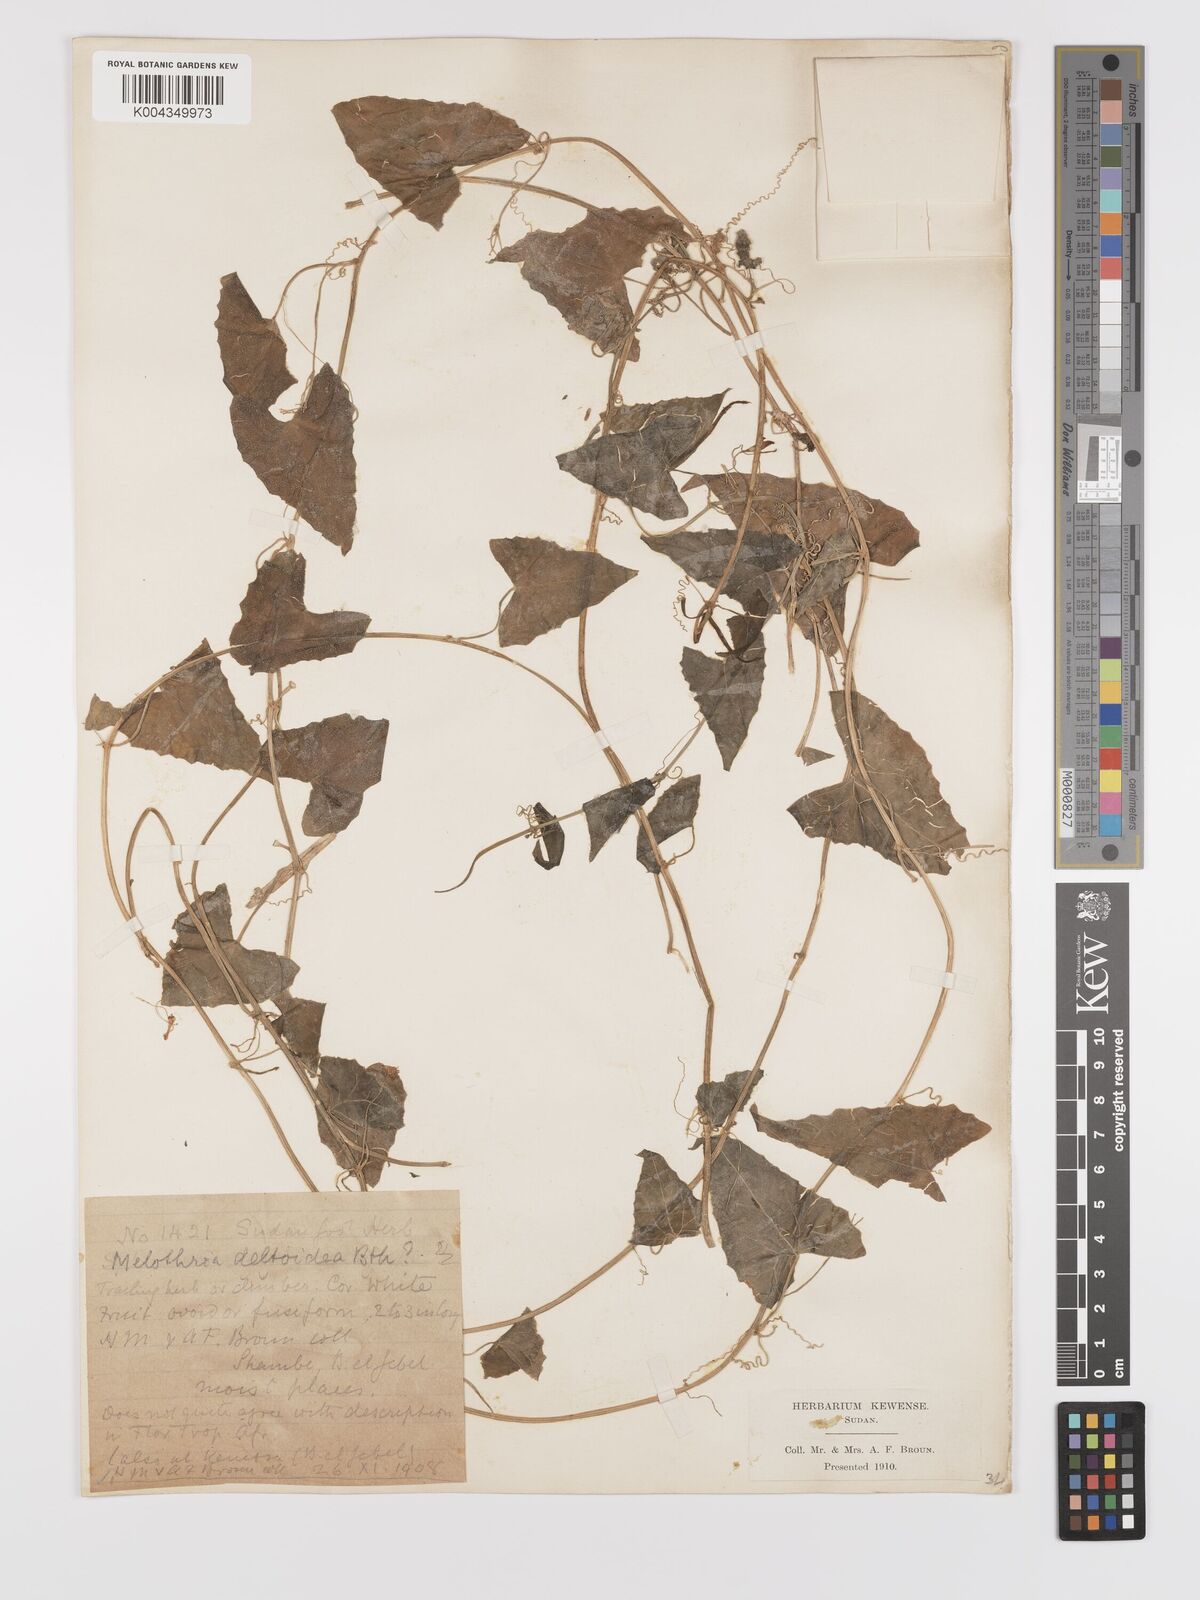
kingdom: Plantae
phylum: Tracheophyta
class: Magnoliopsida
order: Cucurbitales
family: Cucurbitaceae
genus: Zehneria
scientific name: Zehneria peneyana
